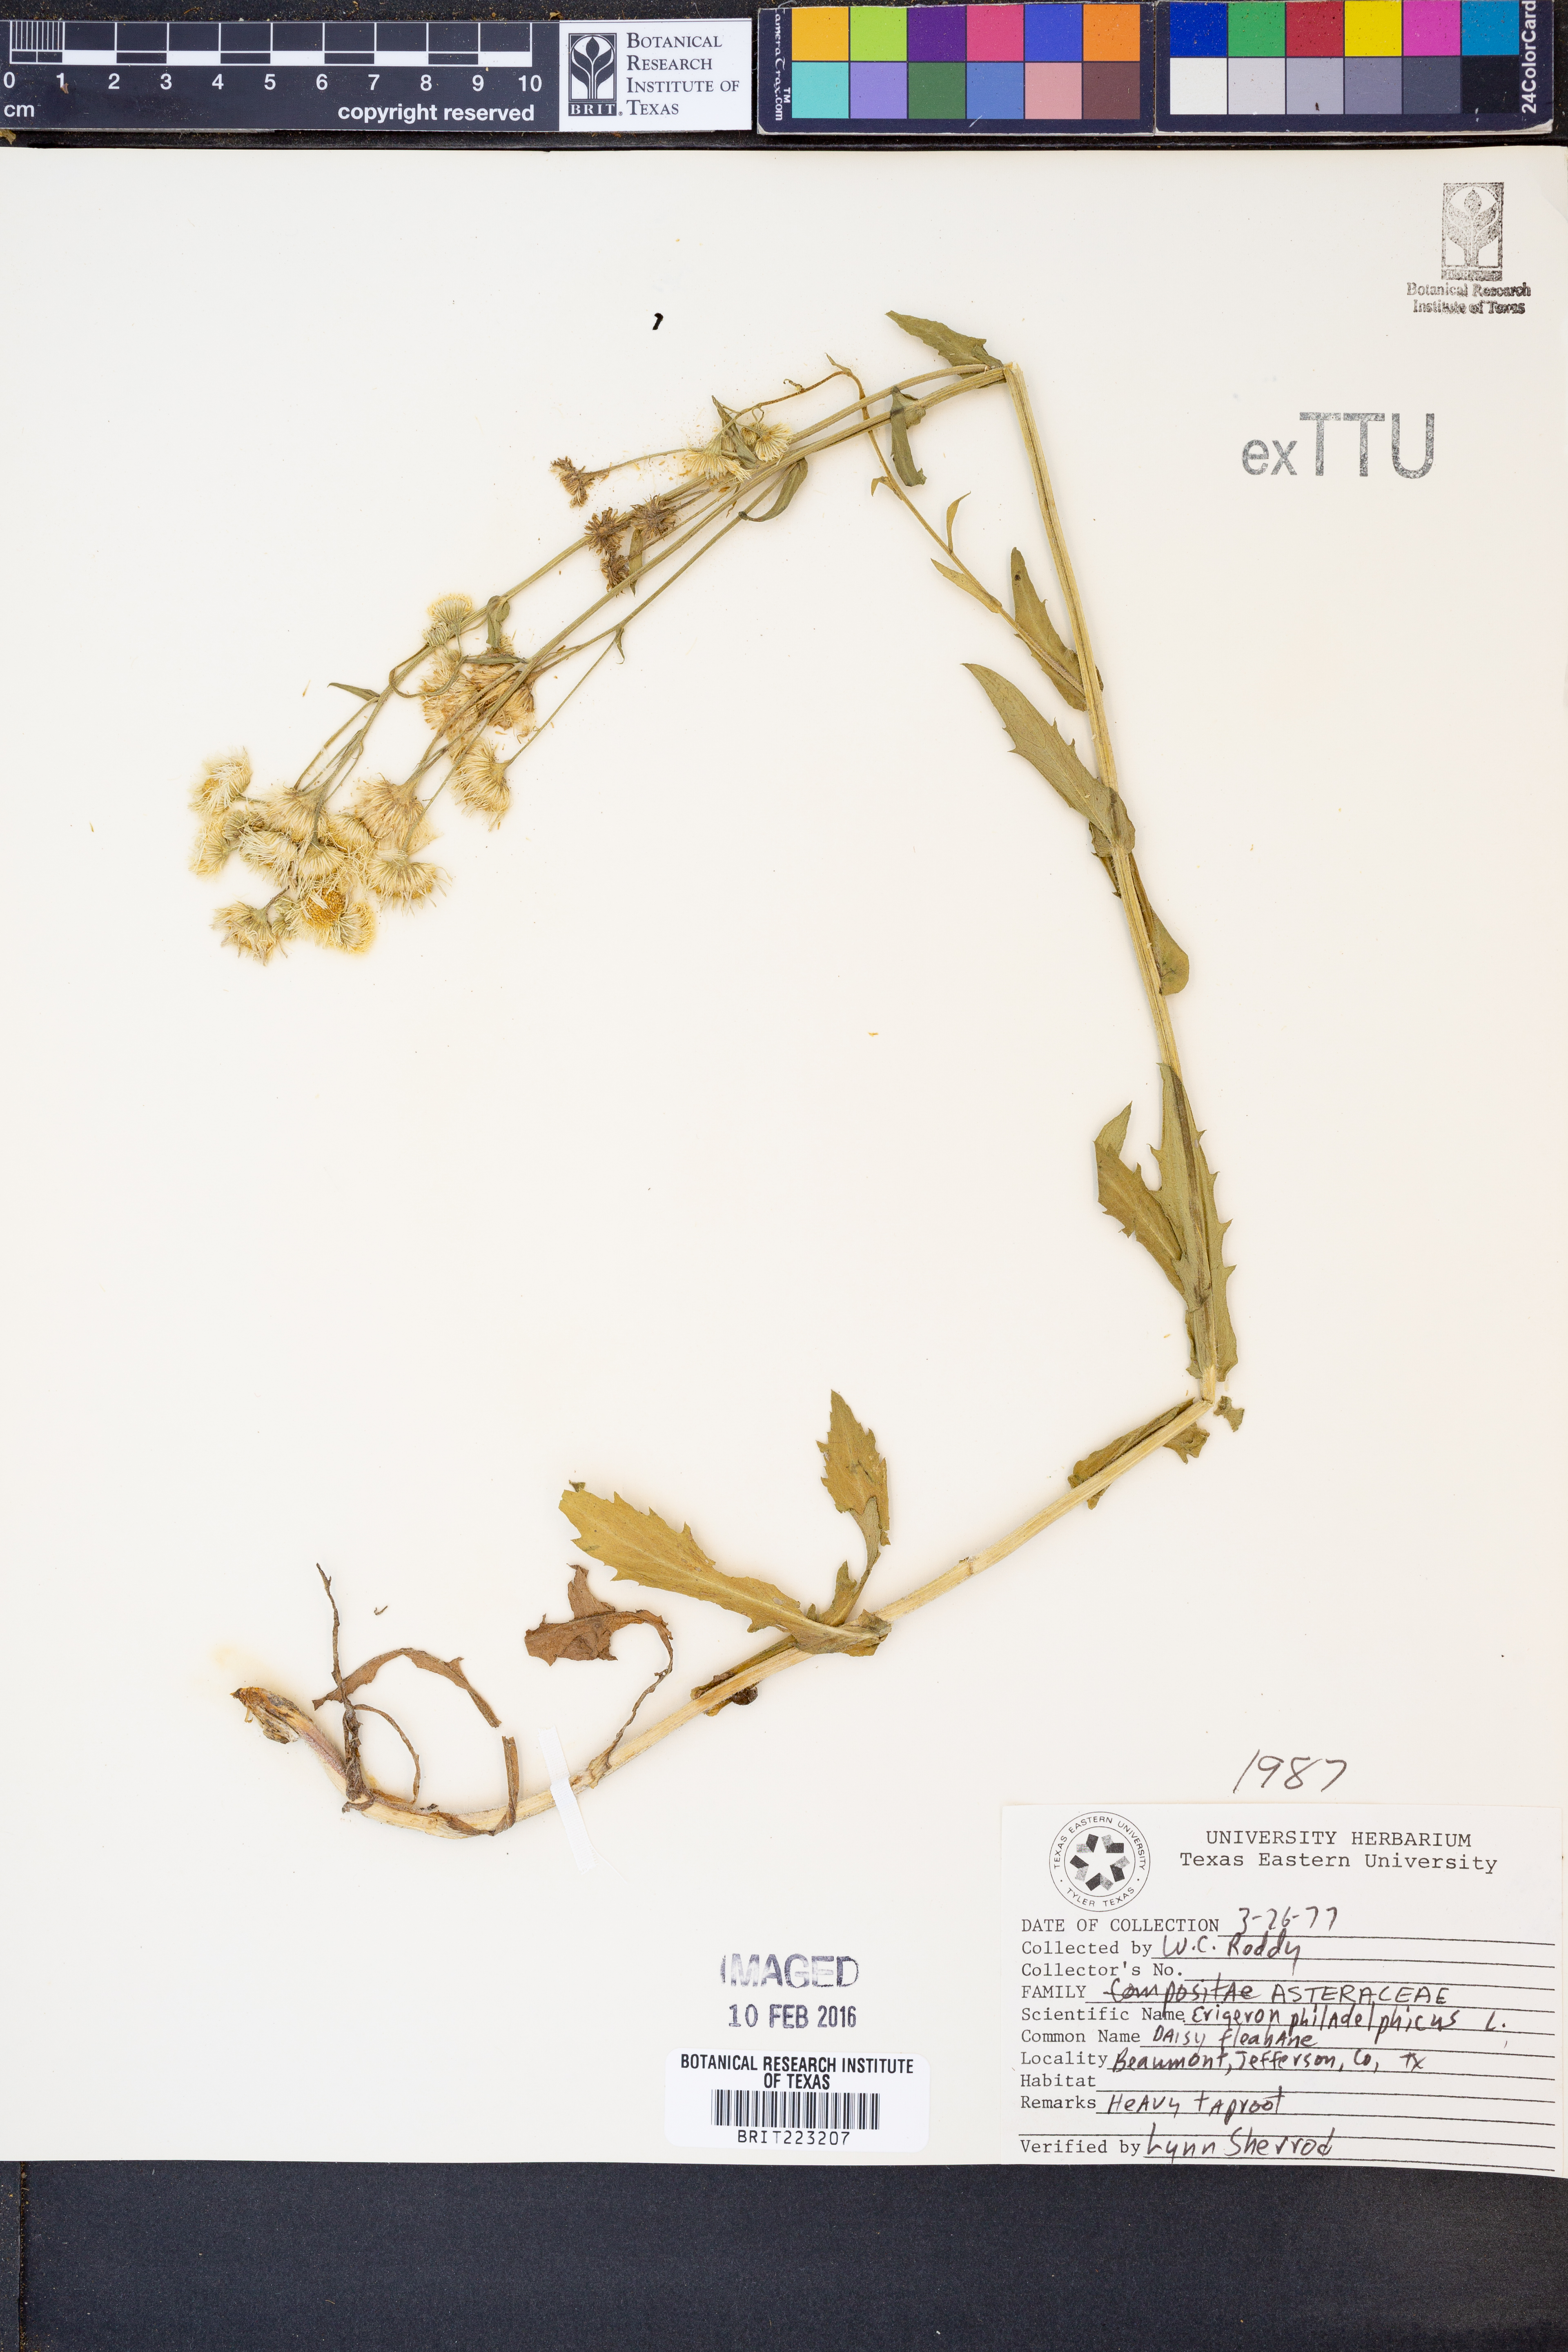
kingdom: Plantae
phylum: Tracheophyta
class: Magnoliopsida
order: Asterales
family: Asteraceae
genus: Erigeron
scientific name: Erigeron philadelphicus
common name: Robin's-plantain
